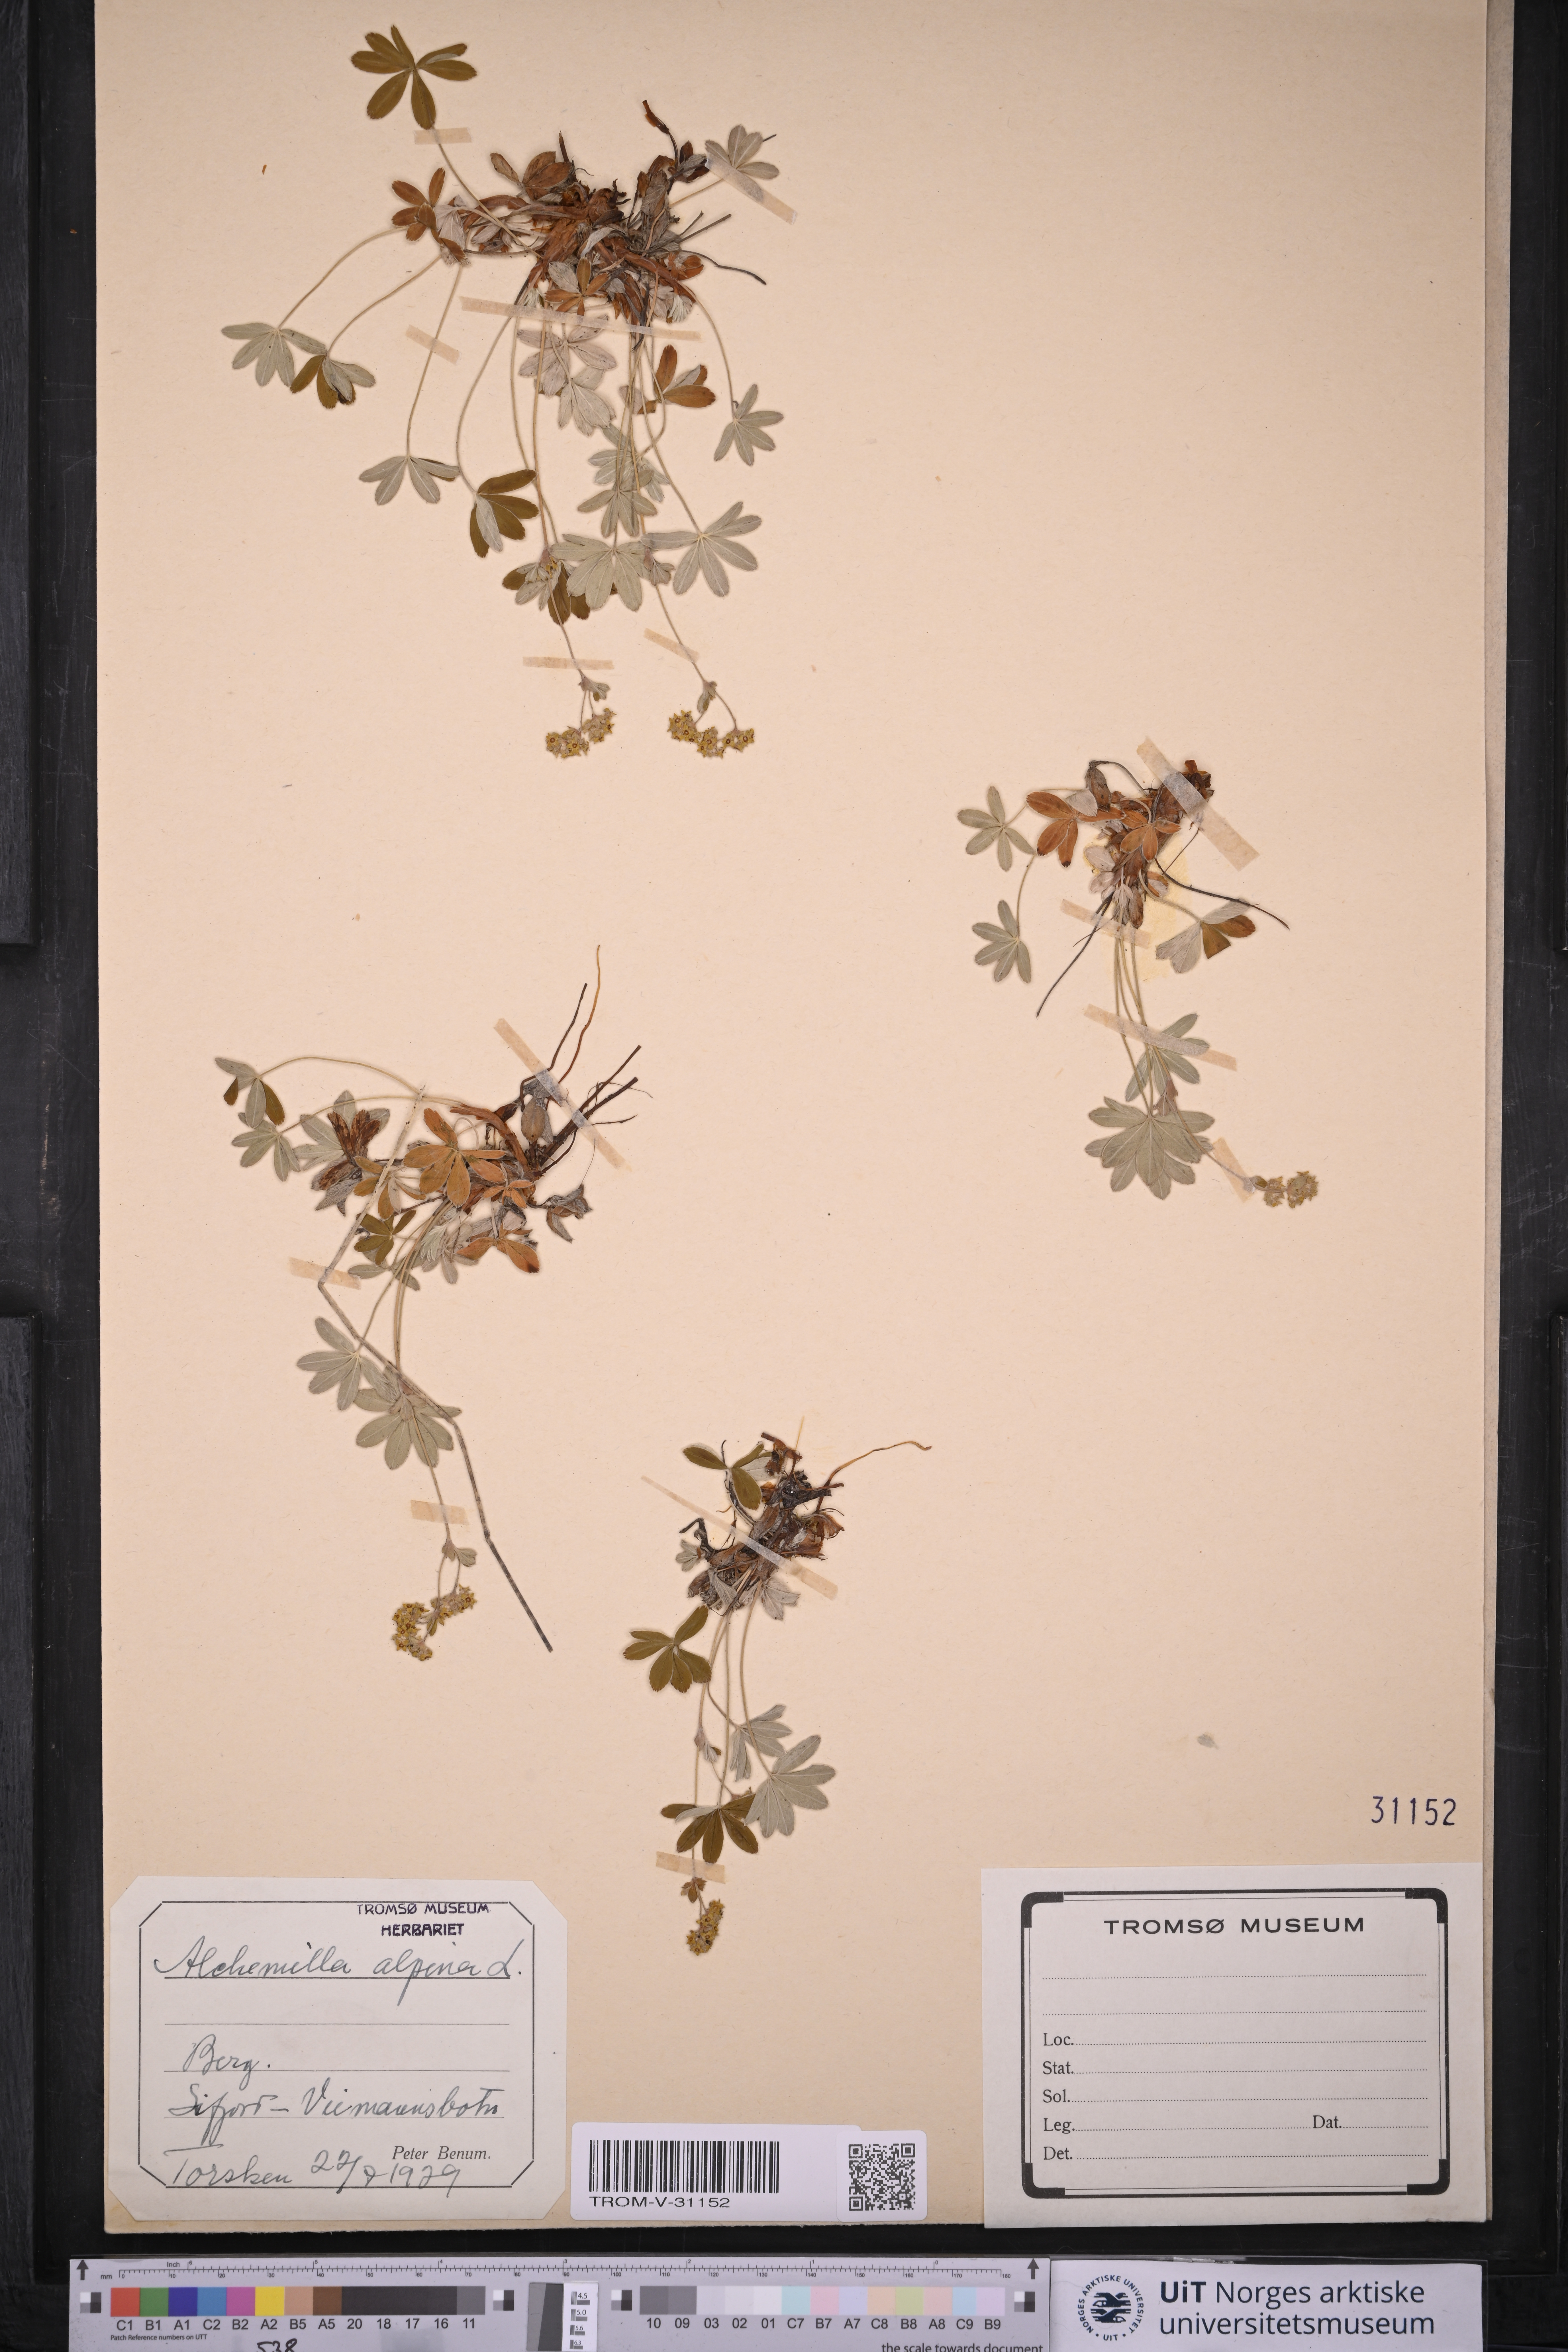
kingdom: Plantae
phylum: Tracheophyta
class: Magnoliopsida
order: Rosales
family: Rosaceae
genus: Alchemilla
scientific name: Alchemilla alpina
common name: Alpine lady's-mantle
